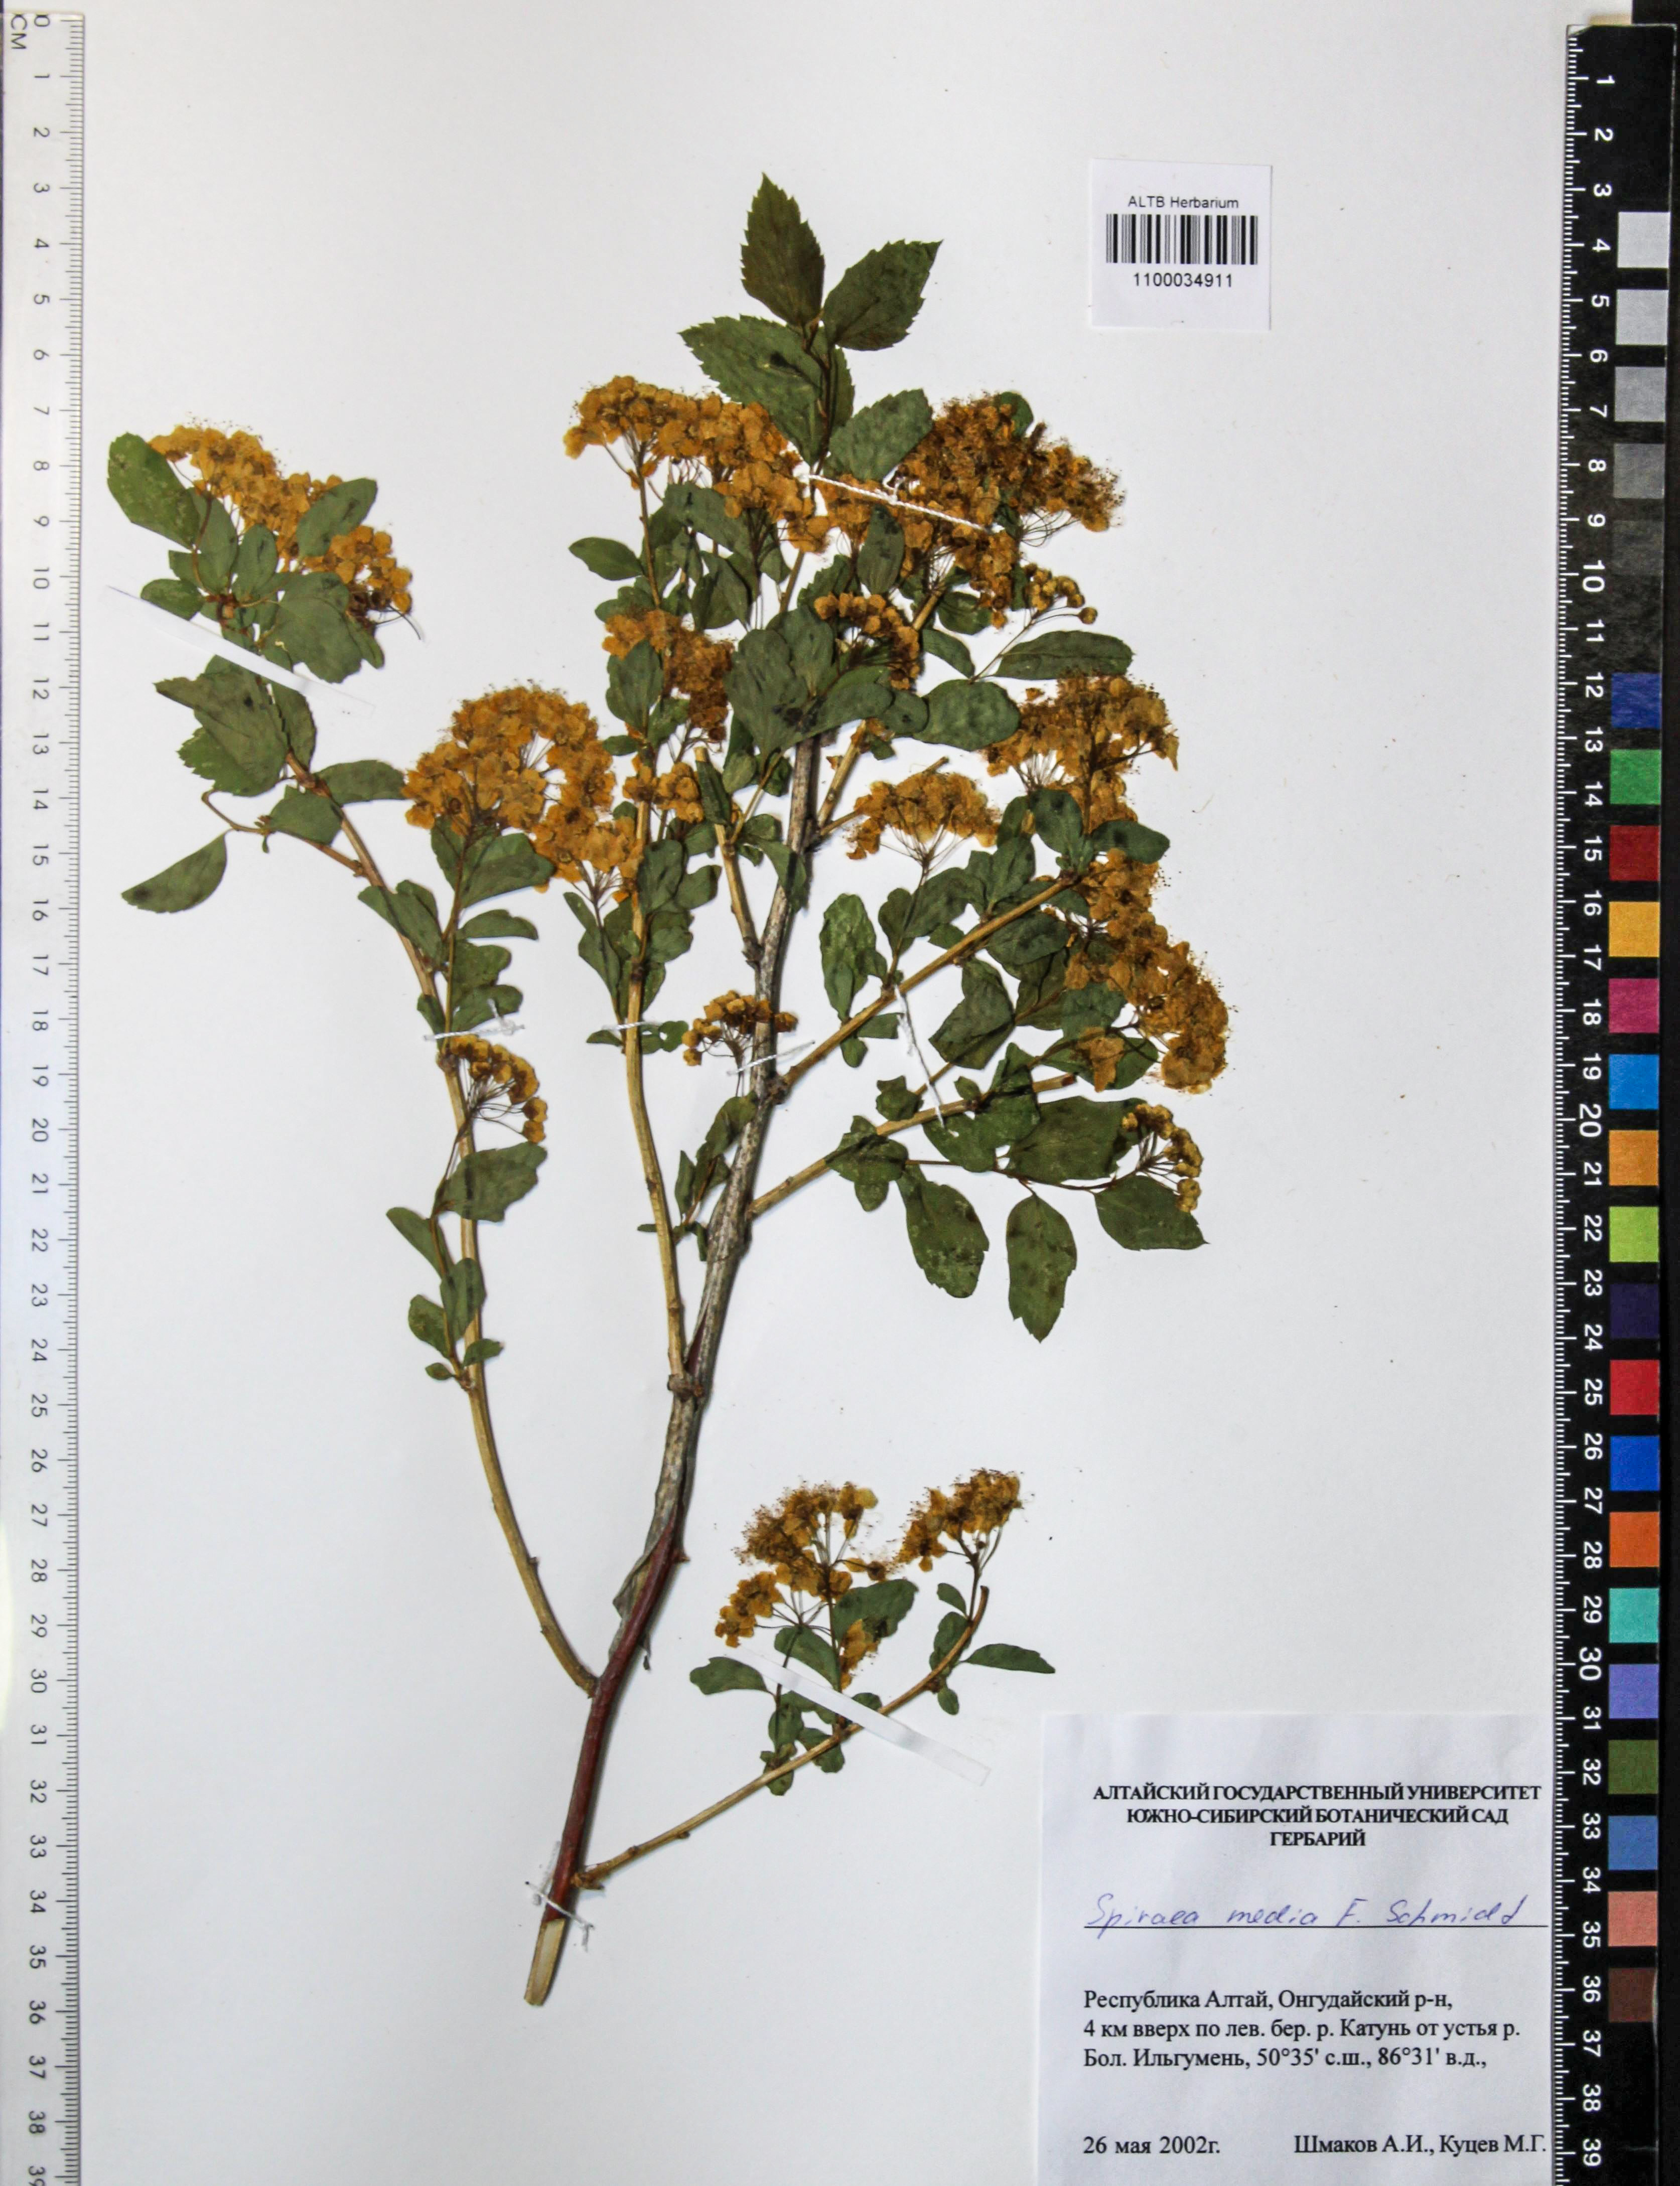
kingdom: Plantae
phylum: Tracheophyta
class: Magnoliopsida
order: Rosales
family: Rosaceae
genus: Spiraea
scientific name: Spiraea media
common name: Russian spiraea
